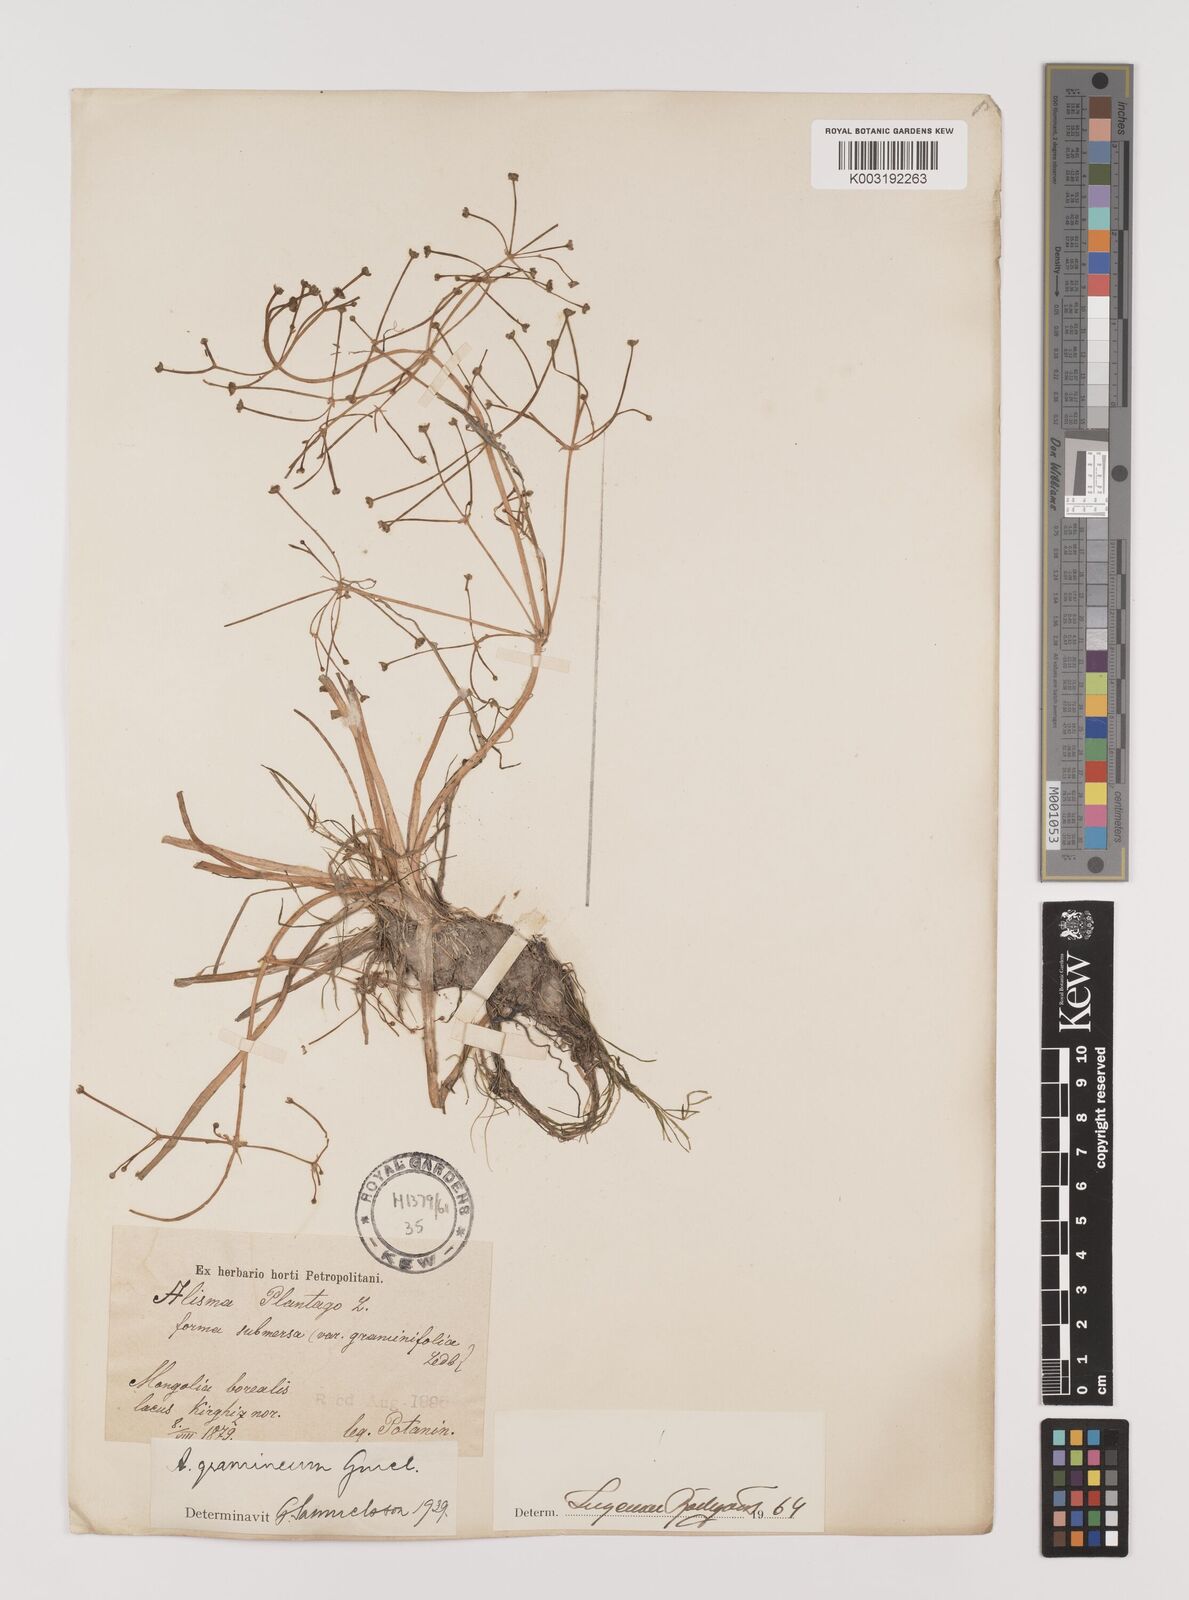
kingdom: Plantae
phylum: Tracheophyta
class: Liliopsida
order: Alismatales
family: Alismataceae
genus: Alisma
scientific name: Alisma gramineum
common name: Ribbon-leaved water-plantain
